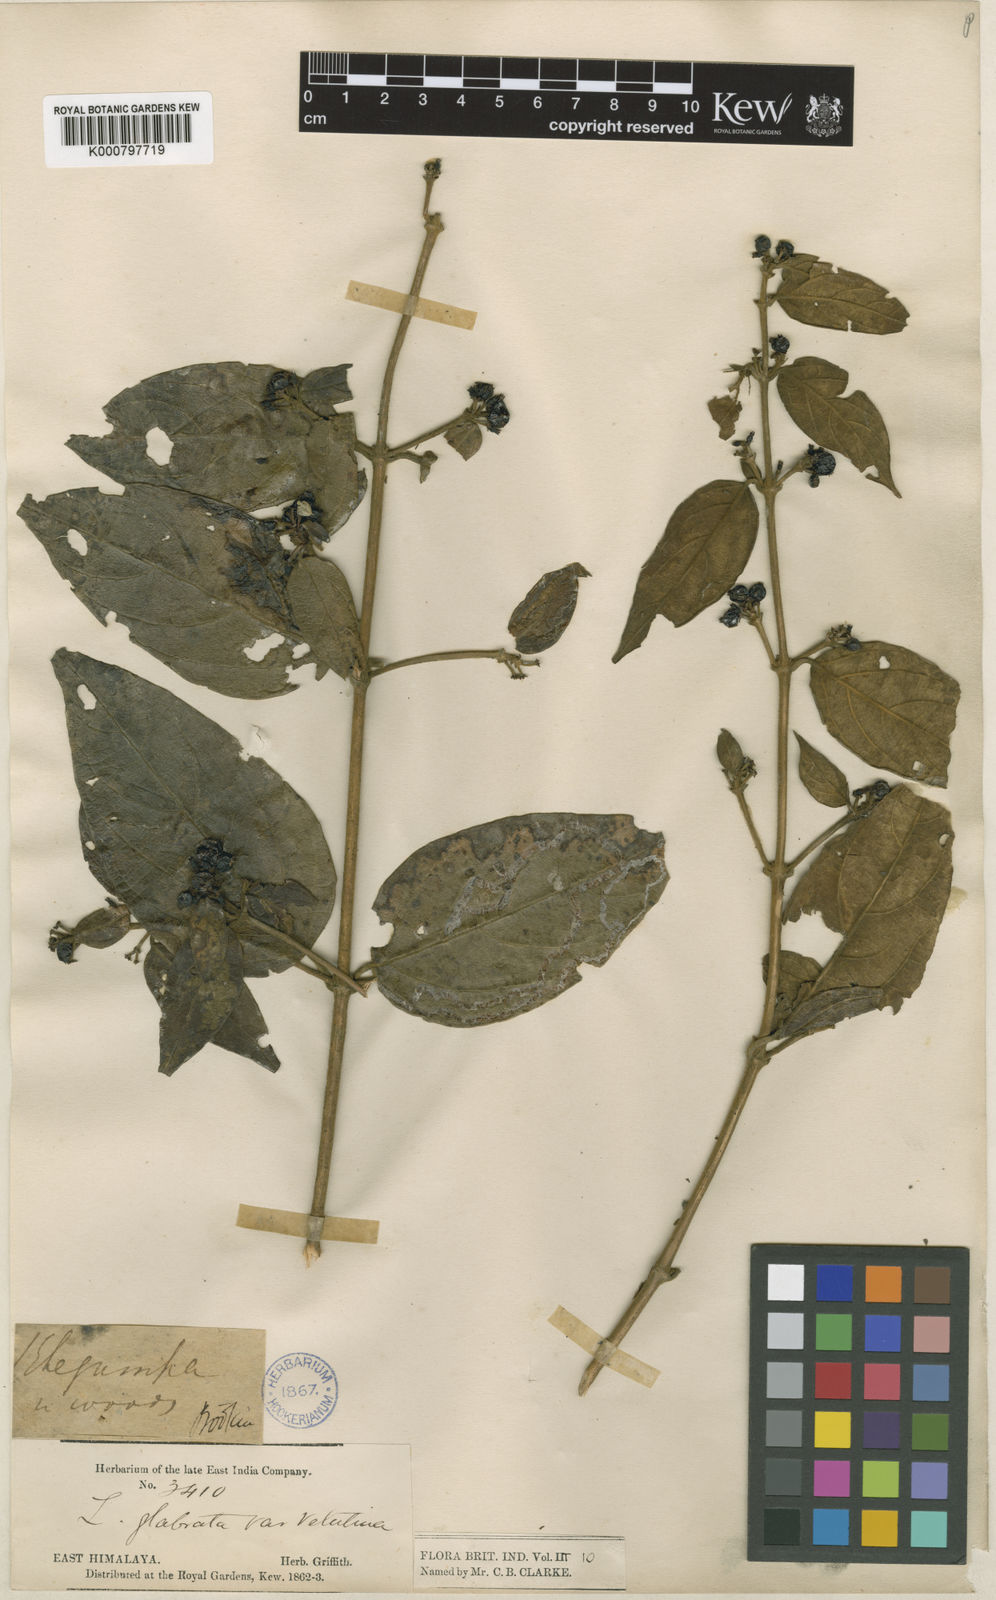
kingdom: Plantae
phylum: Tracheophyta
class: Magnoliopsida
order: Dipsacales
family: Caprifoliaceae
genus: Lonicera
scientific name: Lonicera glabrata
